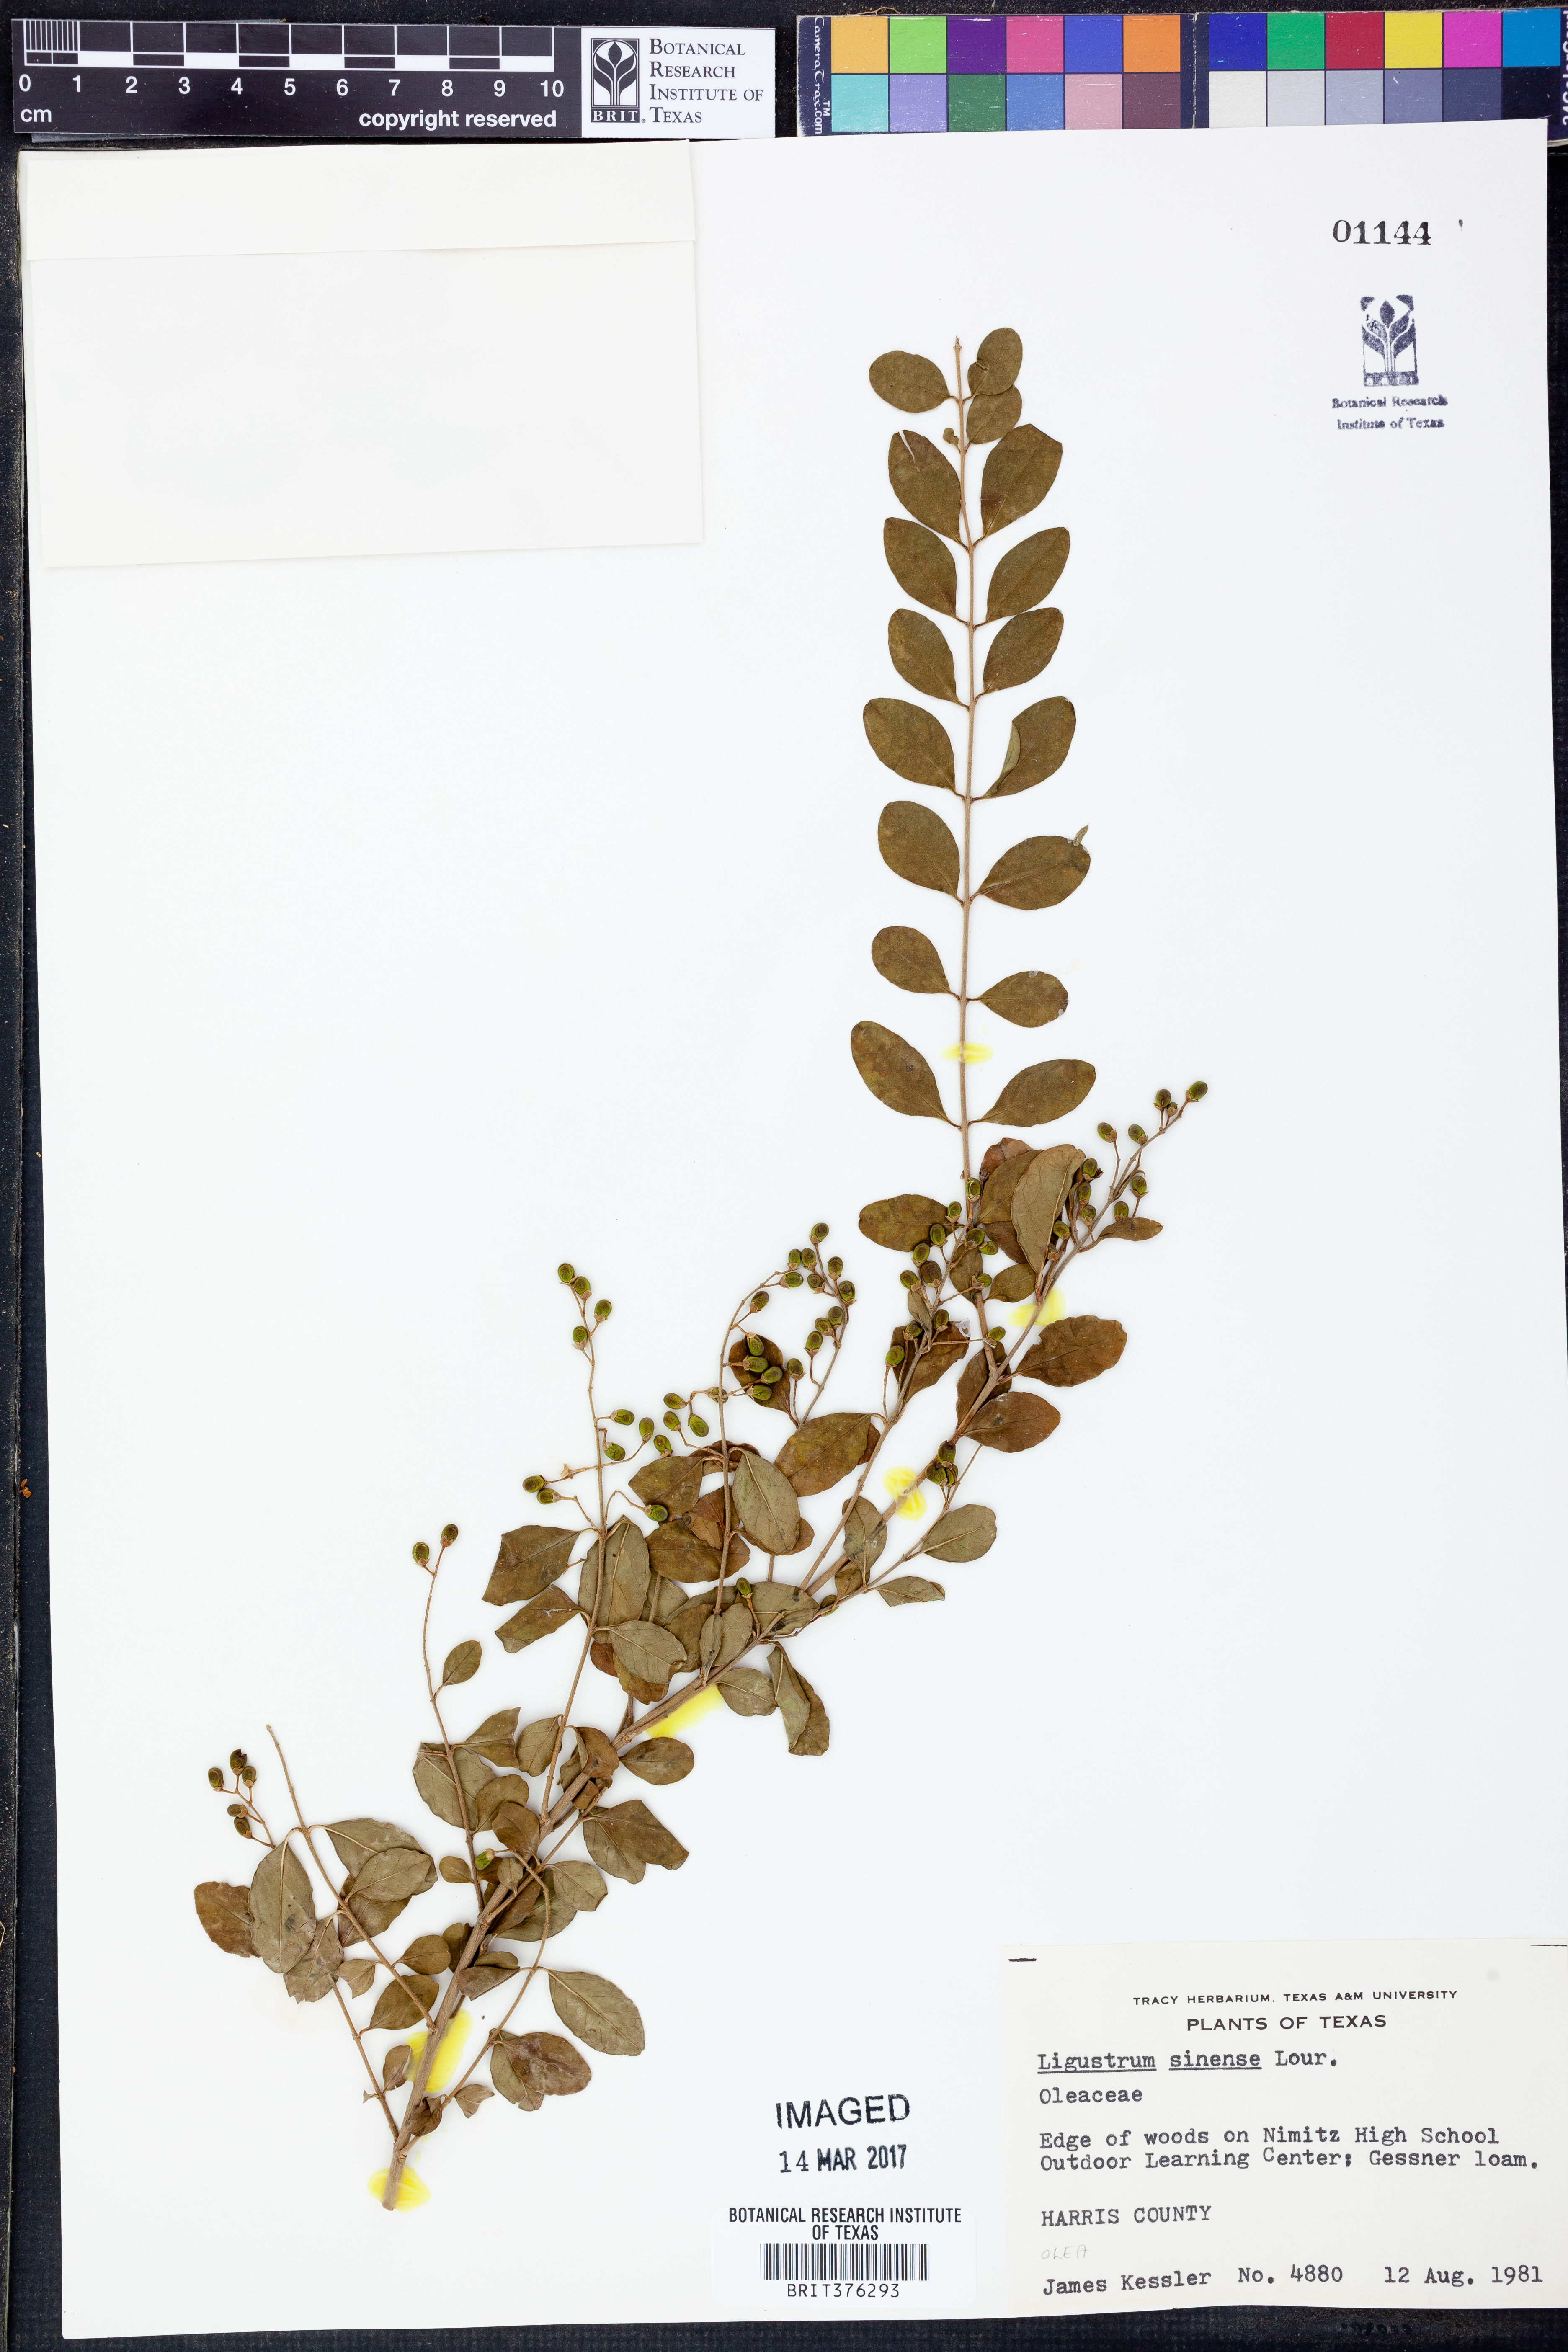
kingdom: Plantae
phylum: Tracheophyta
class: Magnoliopsida
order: Lamiales
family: Oleaceae
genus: Ligustrum
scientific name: Ligustrum sinense
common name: Chinese privet
